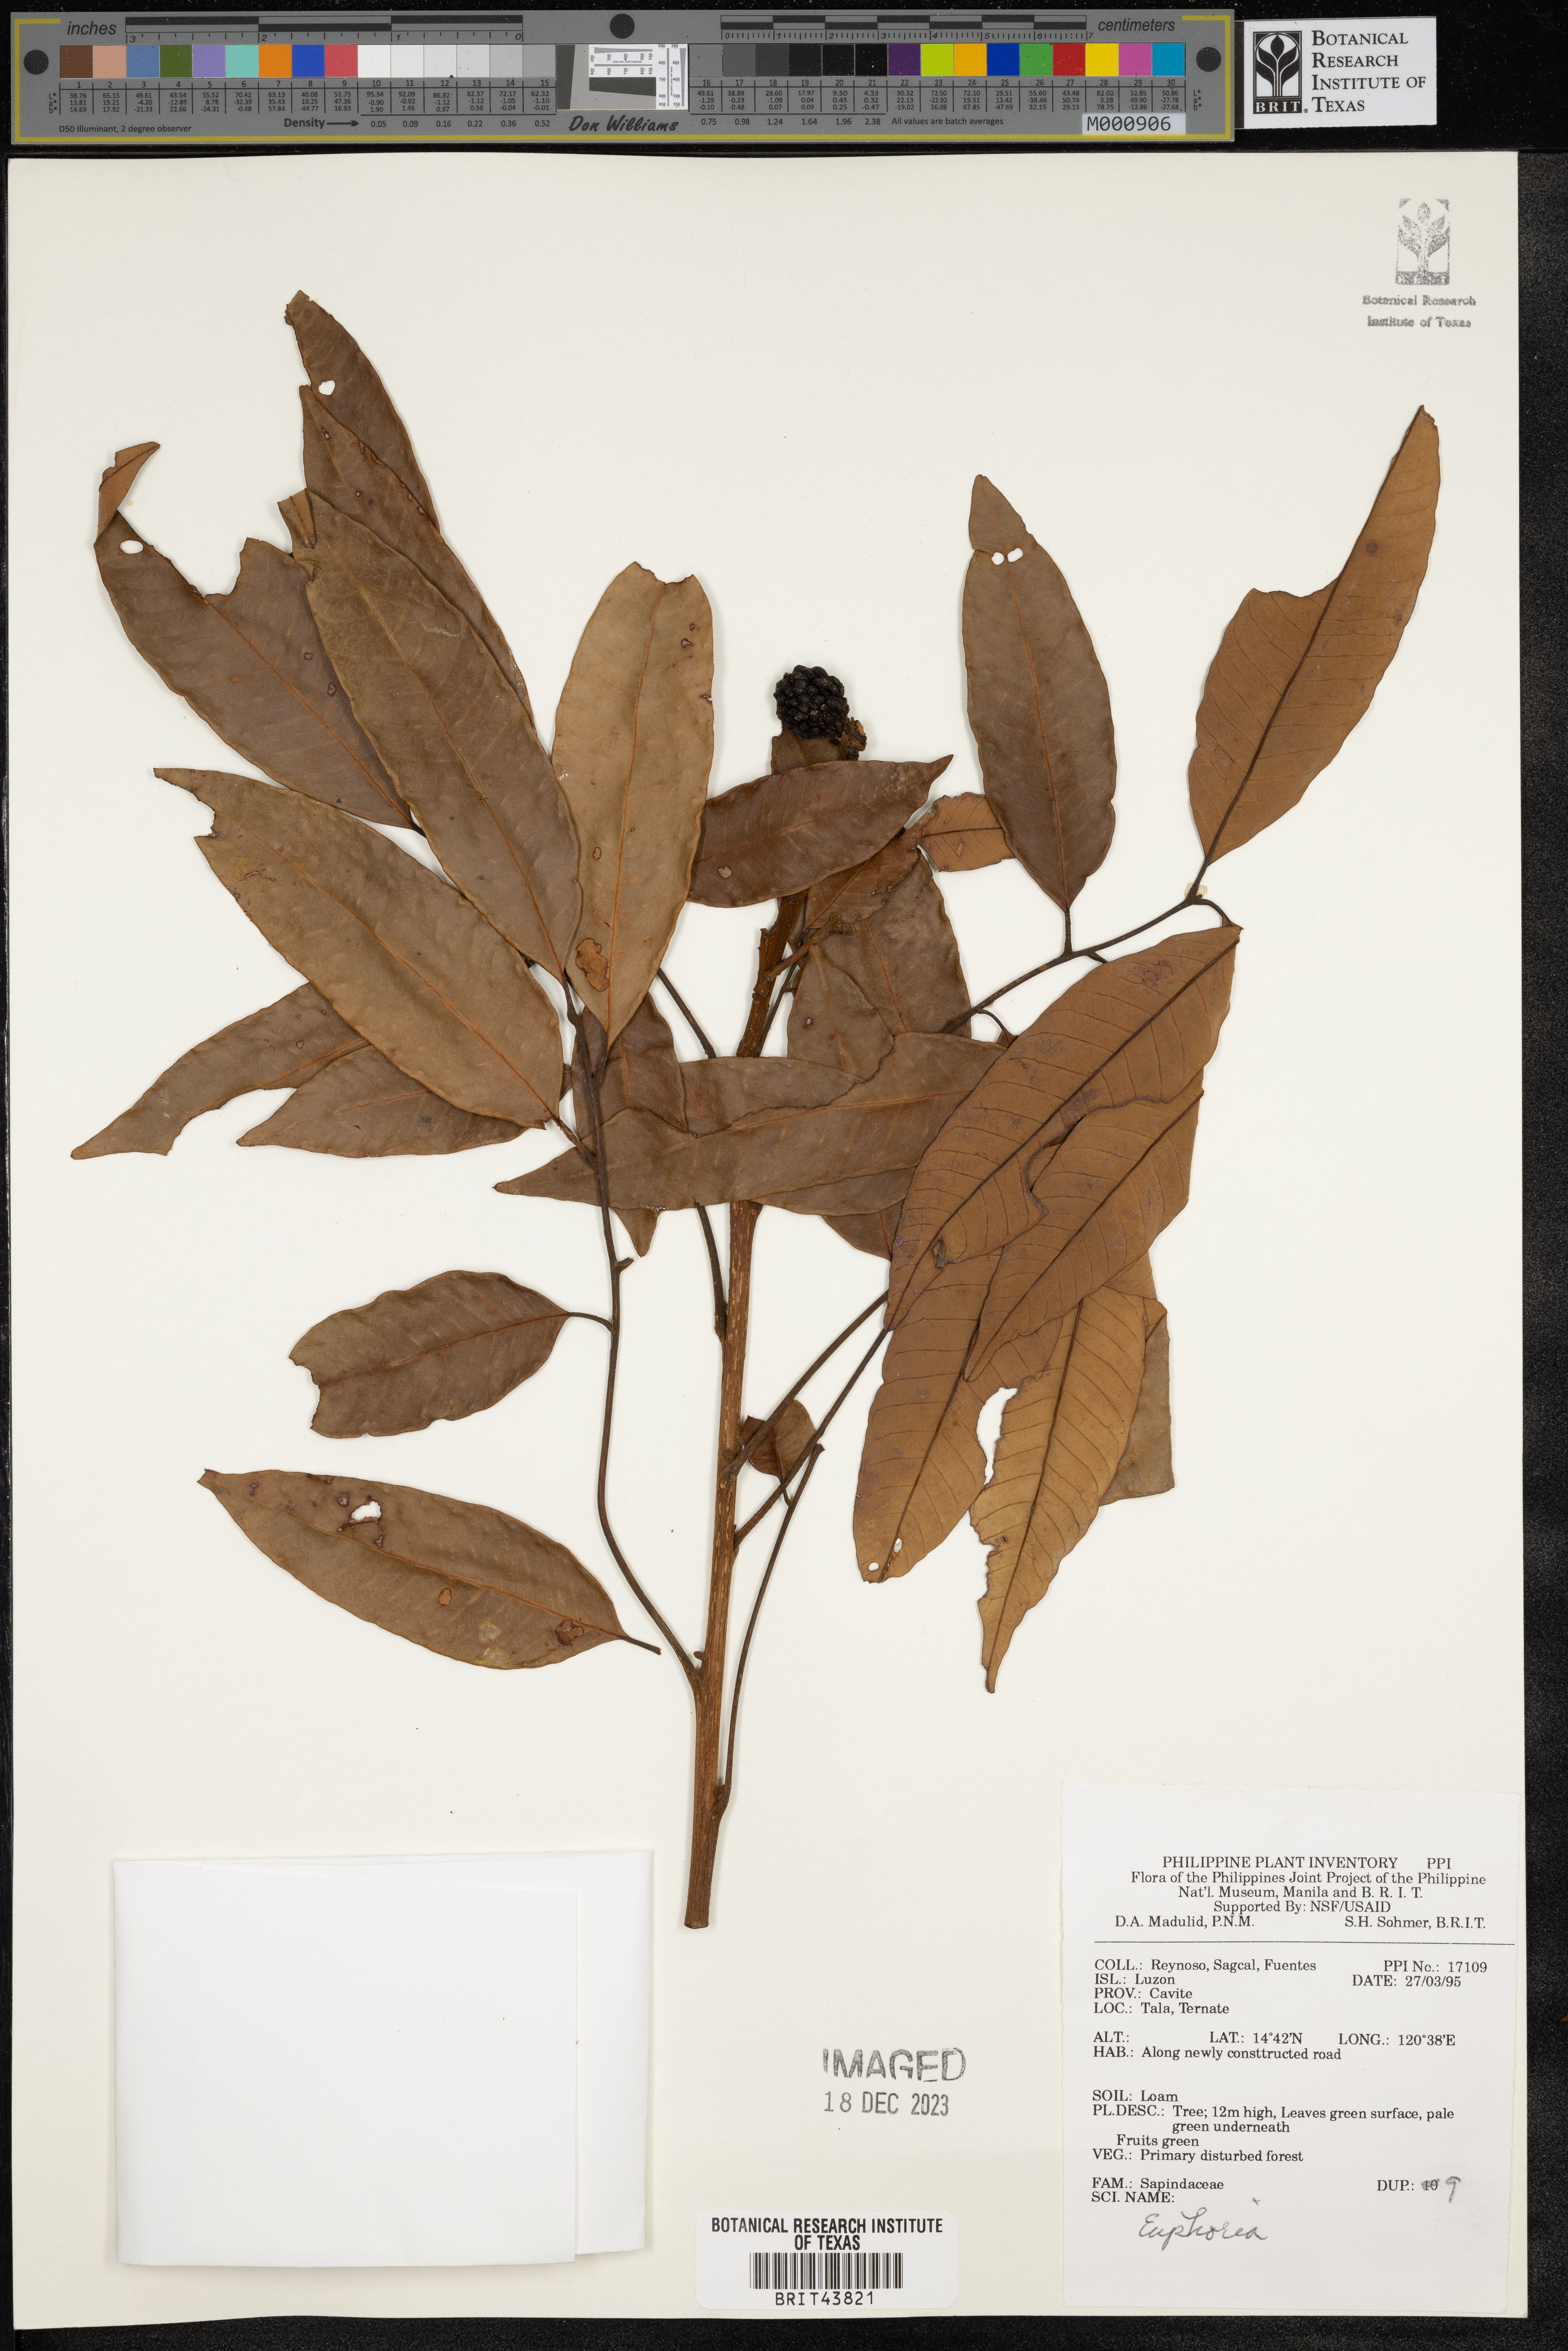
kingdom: Animalia
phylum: Arthropoda
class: Insecta
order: Coleoptera
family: Scarabaeidae
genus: Euphoria
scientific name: Euphoria
